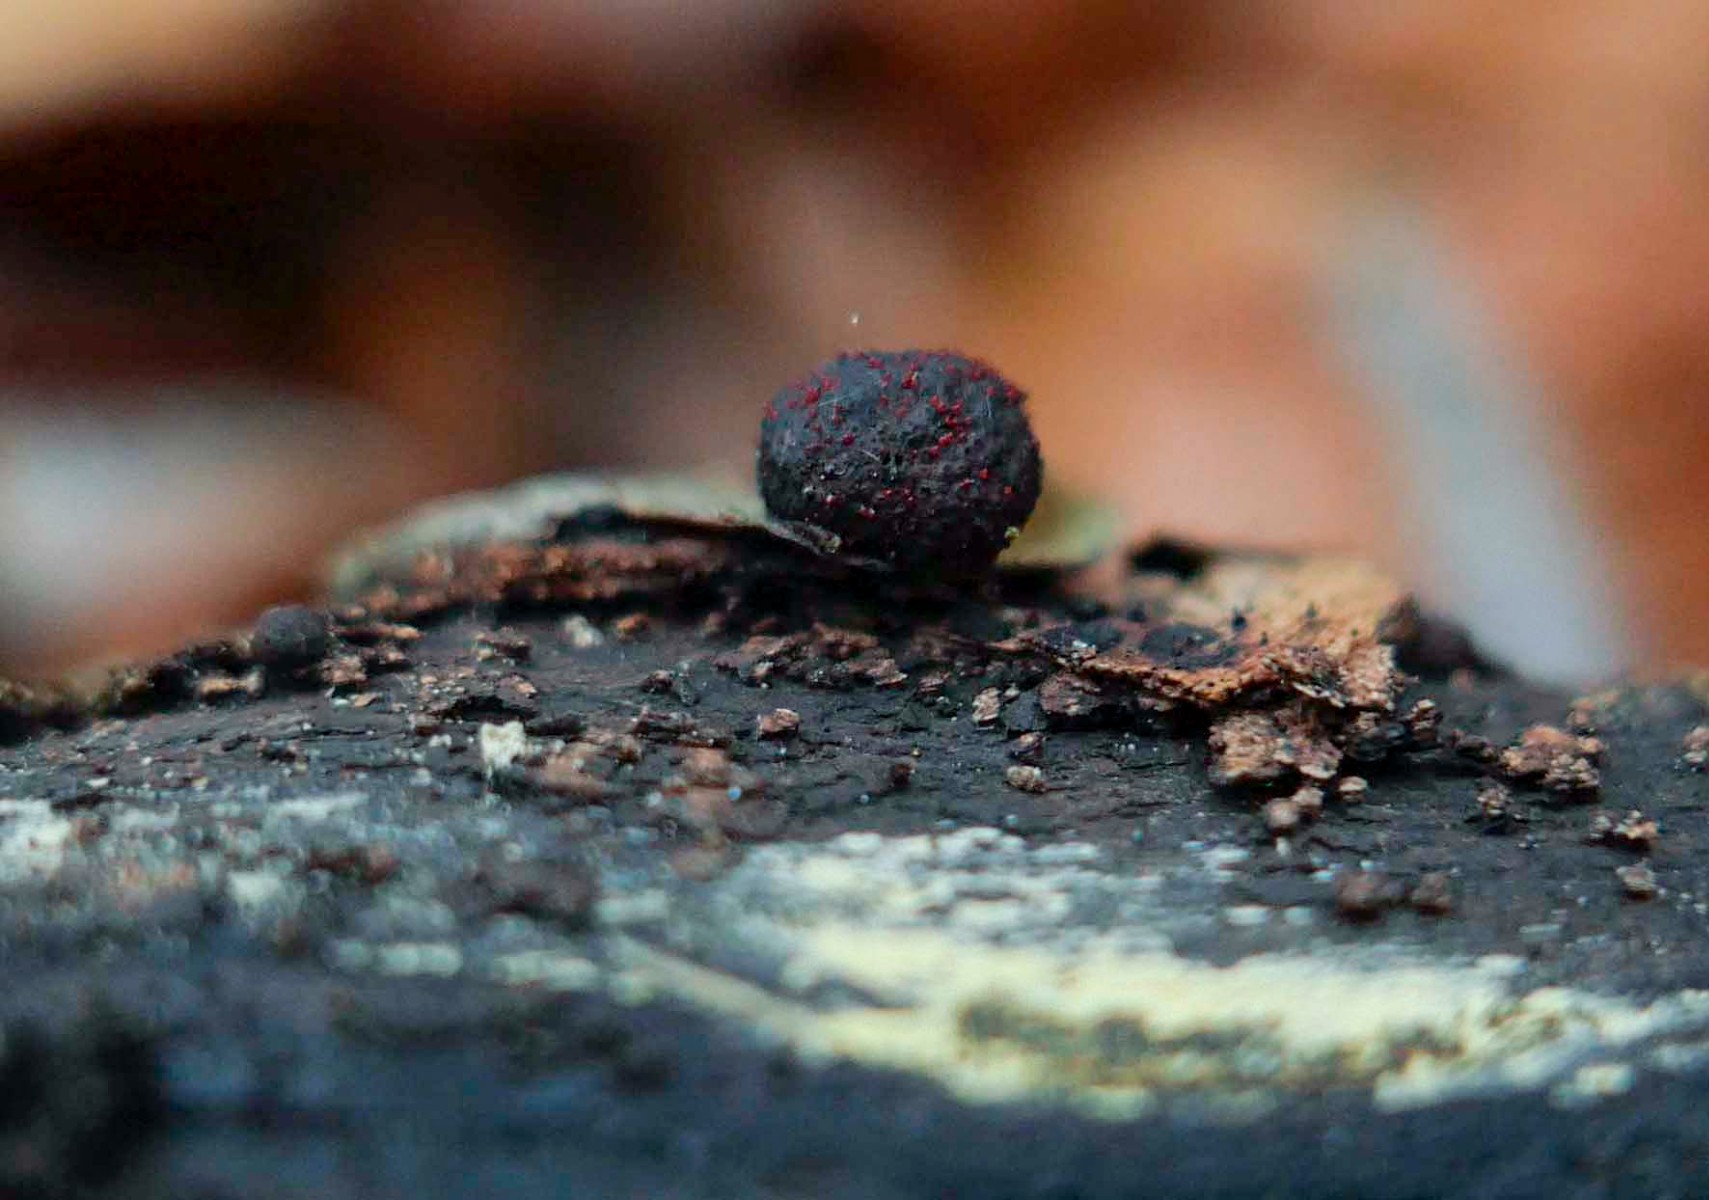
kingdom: Fungi
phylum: Ascomycota
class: Sordariomycetes
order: Hypocreales
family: Nectriaceae
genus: Cosmospora
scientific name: Cosmospora arxii
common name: kuljordbær-cinnobersvamp
